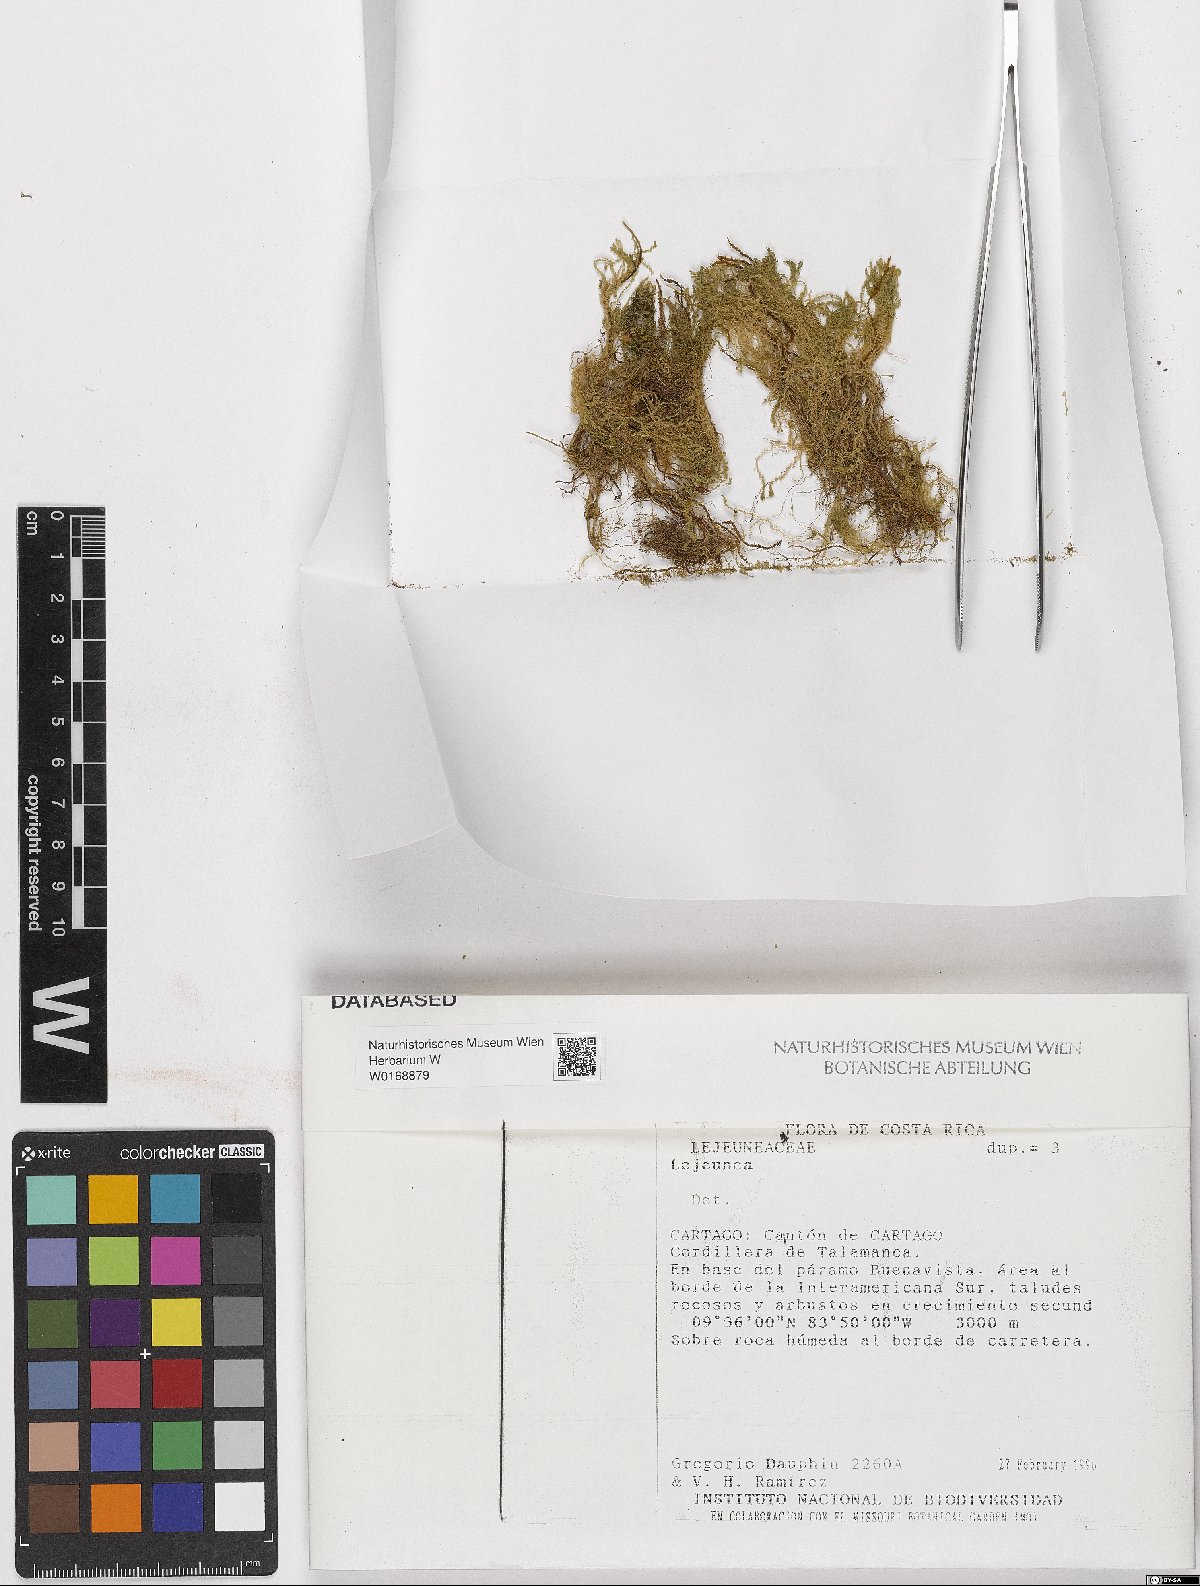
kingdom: Plantae
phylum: Marchantiophyta
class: Jungermanniopsida
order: Porellales
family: Lejeuneaceae
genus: Lejeunea
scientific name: Lejeunea
